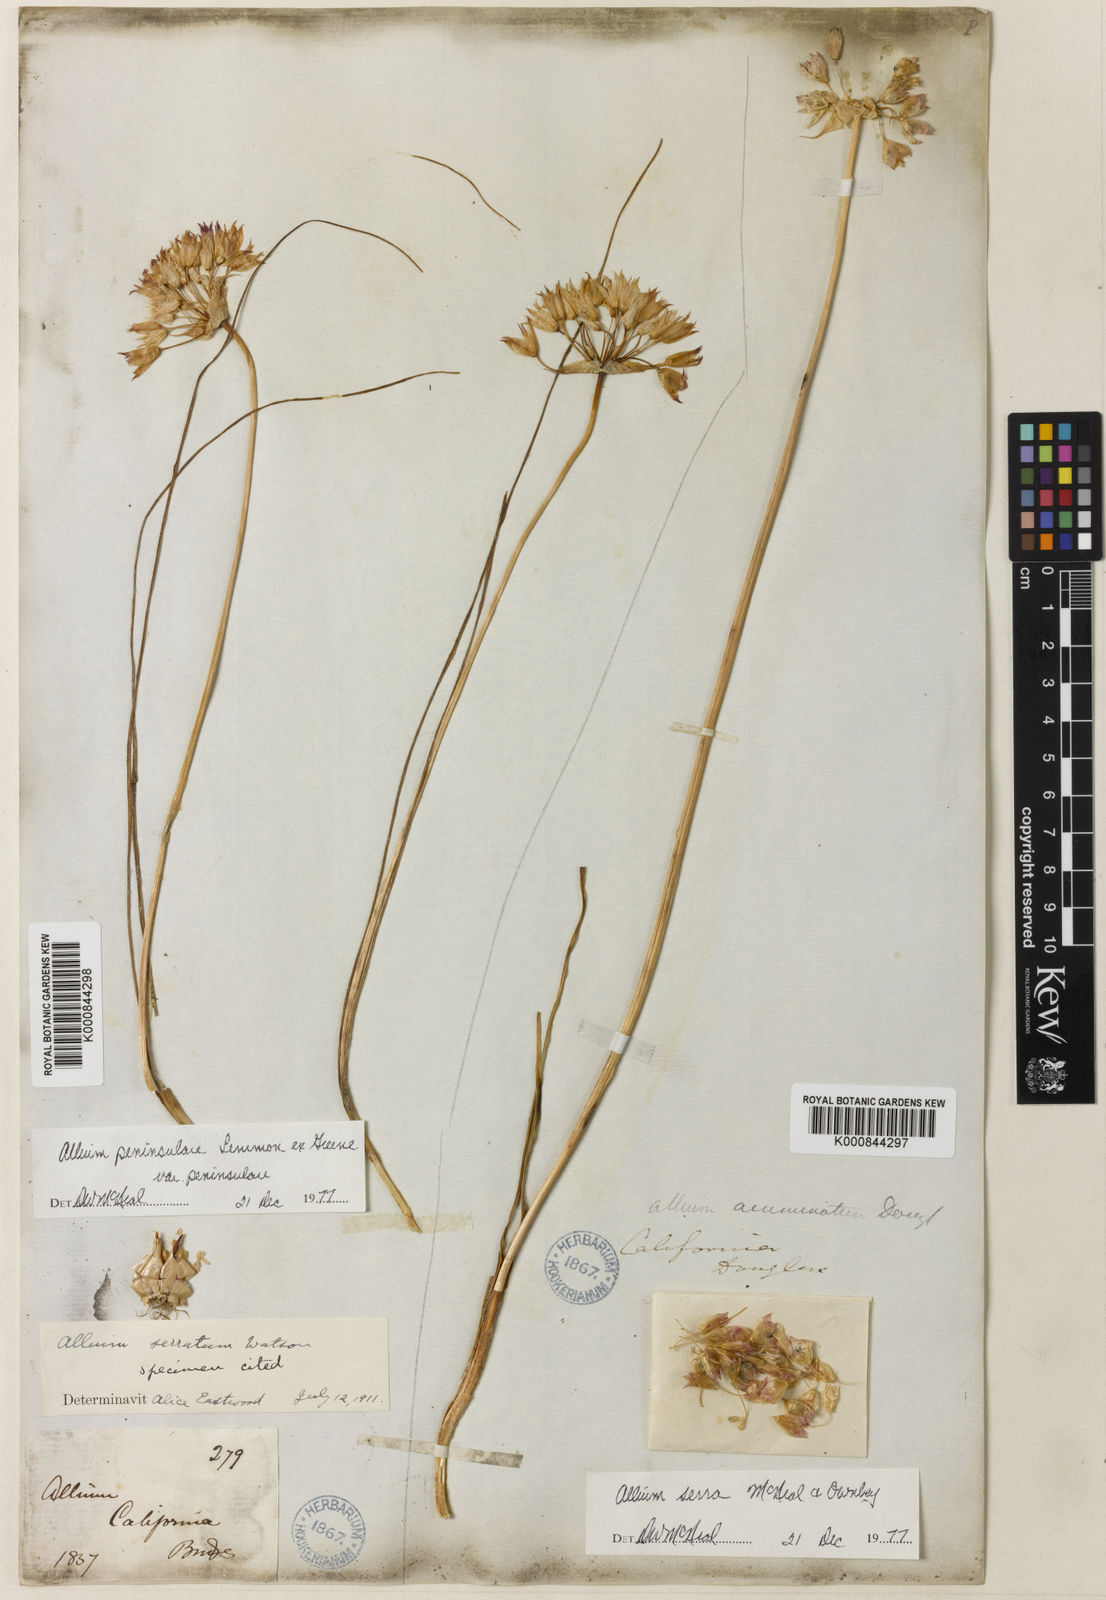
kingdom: Plantae
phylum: Tracheophyta
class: Liliopsida
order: Asparagales
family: Amaryllidaceae
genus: Allium
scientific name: Allium peninsulare
